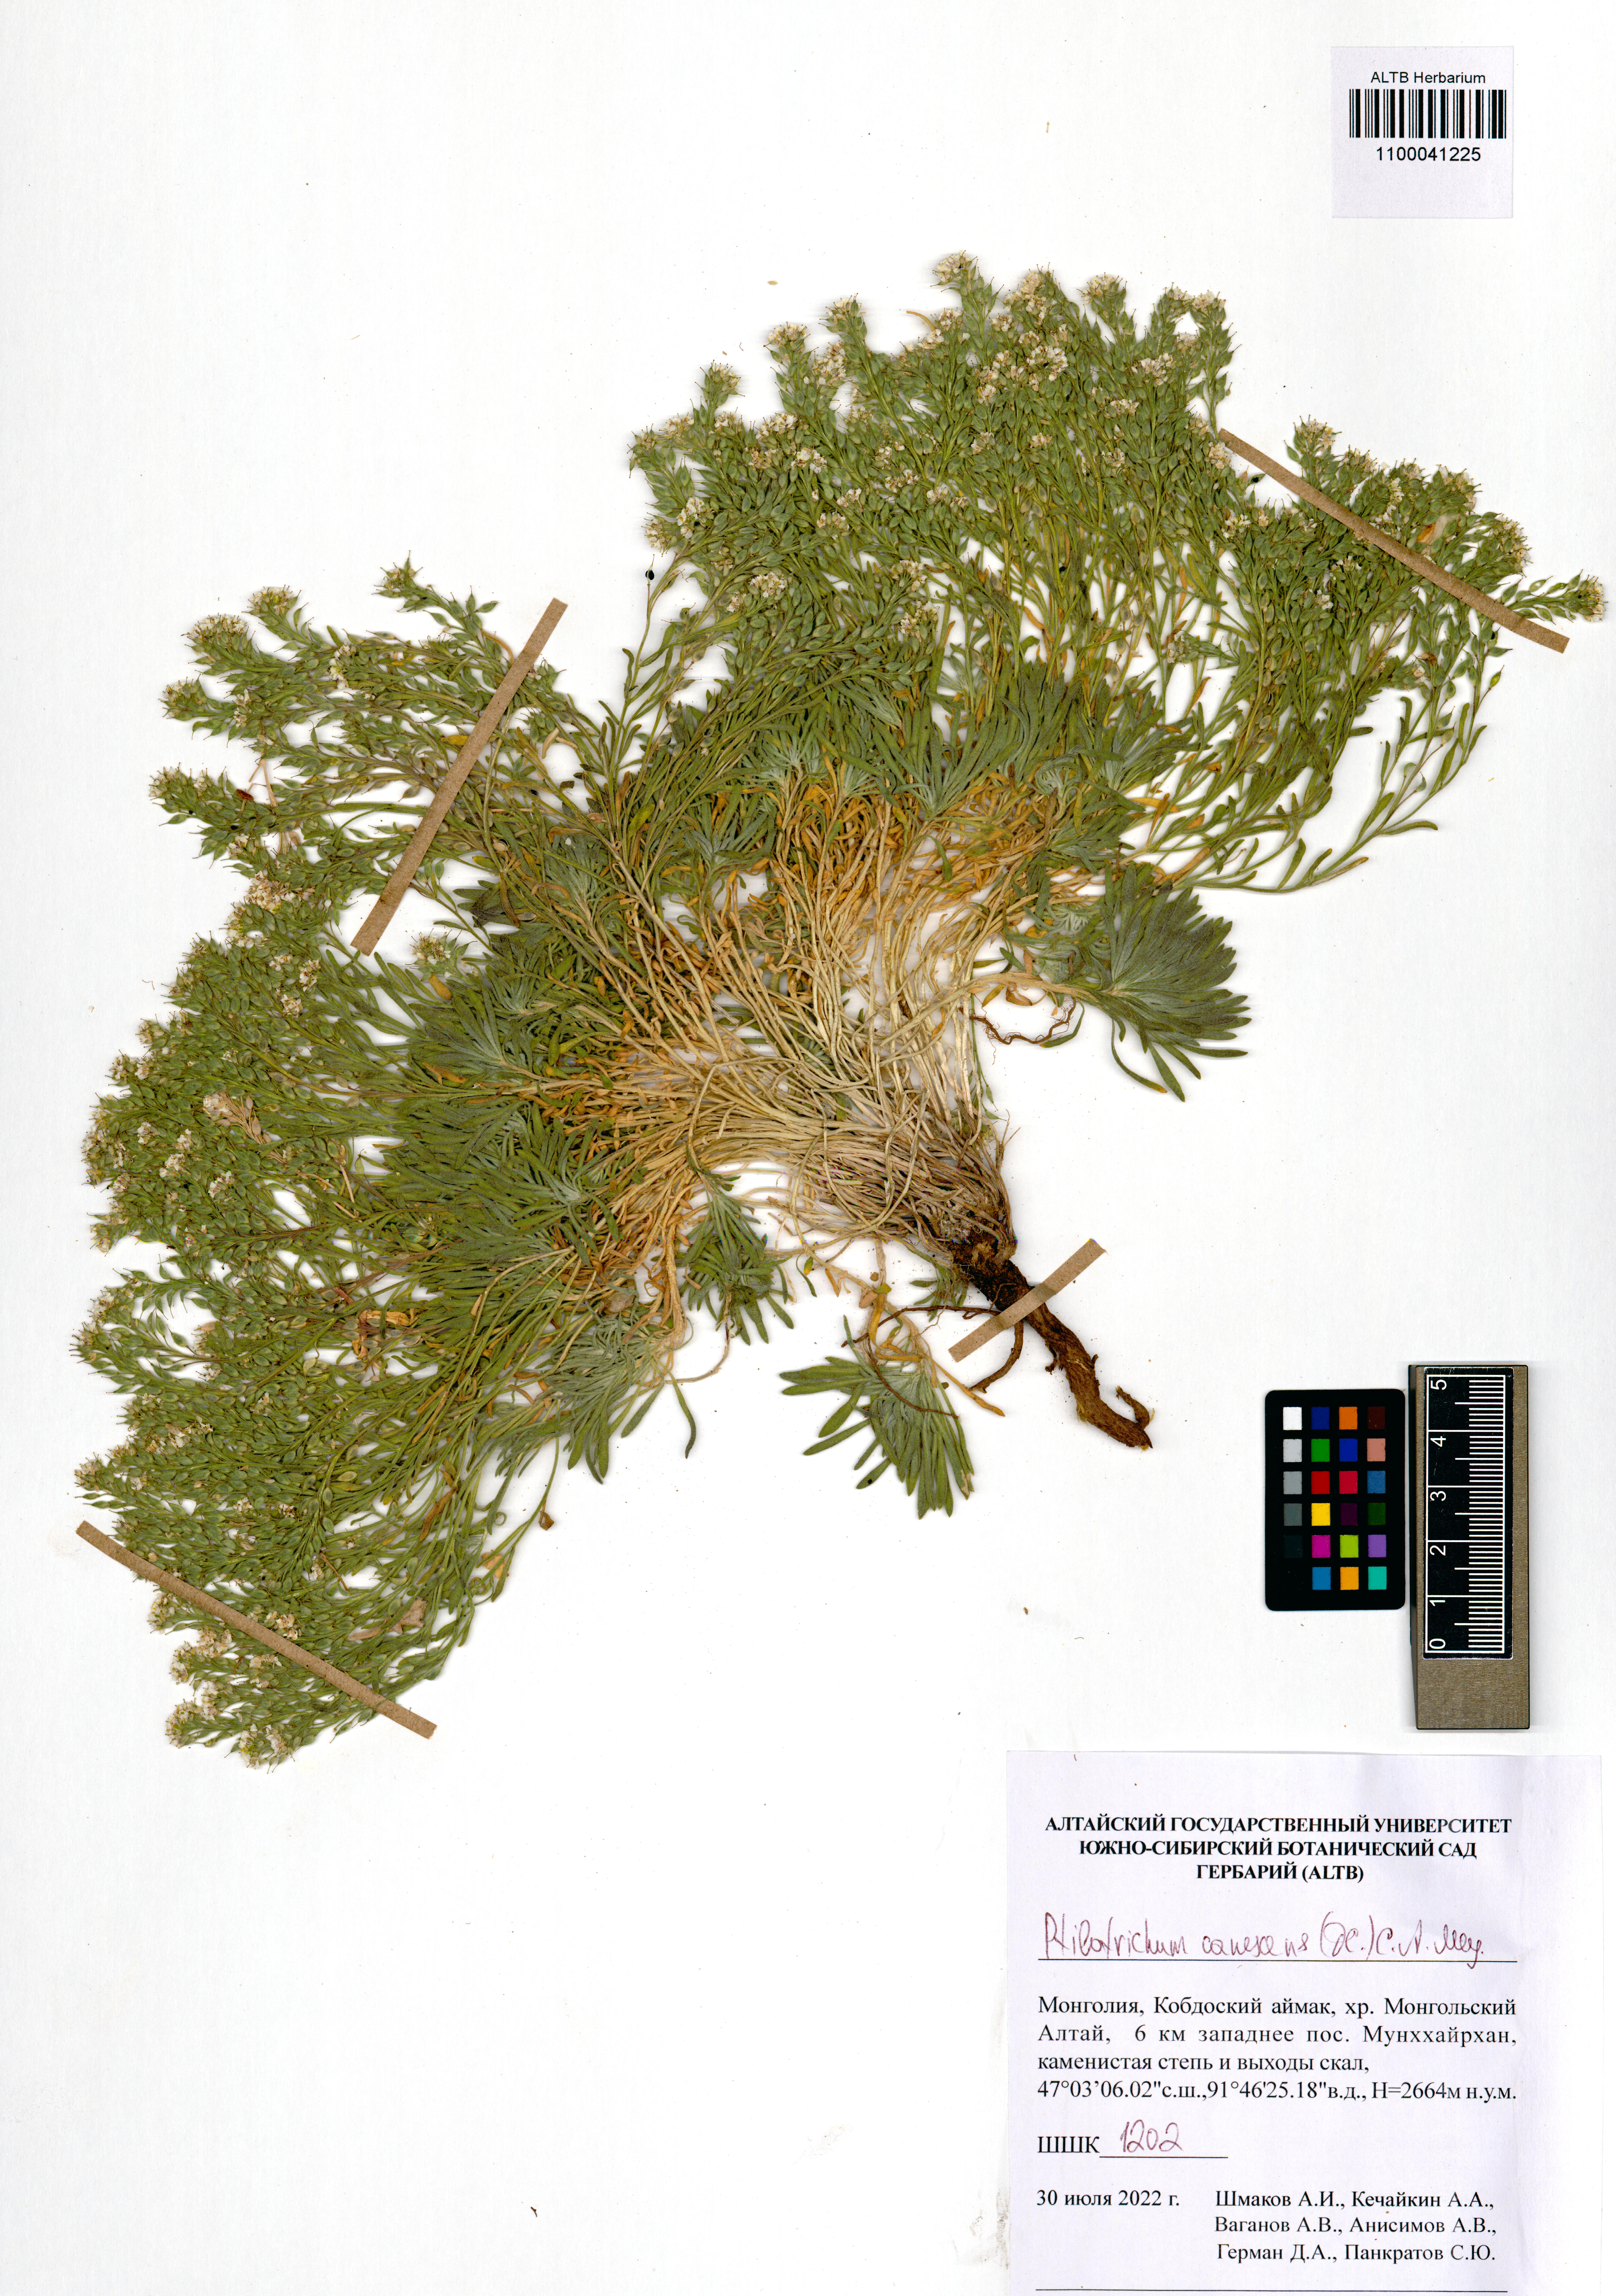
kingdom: Plantae
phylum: Tracheophyta
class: Magnoliopsida
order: Brassicales
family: Brassicaceae
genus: Stevenia
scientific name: Stevenia canescens
